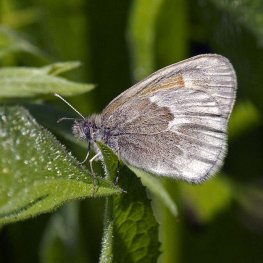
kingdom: Animalia
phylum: Arthropoda
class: Insecta
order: Lepidoptera
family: Nymphalidae
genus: Coenonympha
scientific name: Coenonympha tullia
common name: Large Heath
